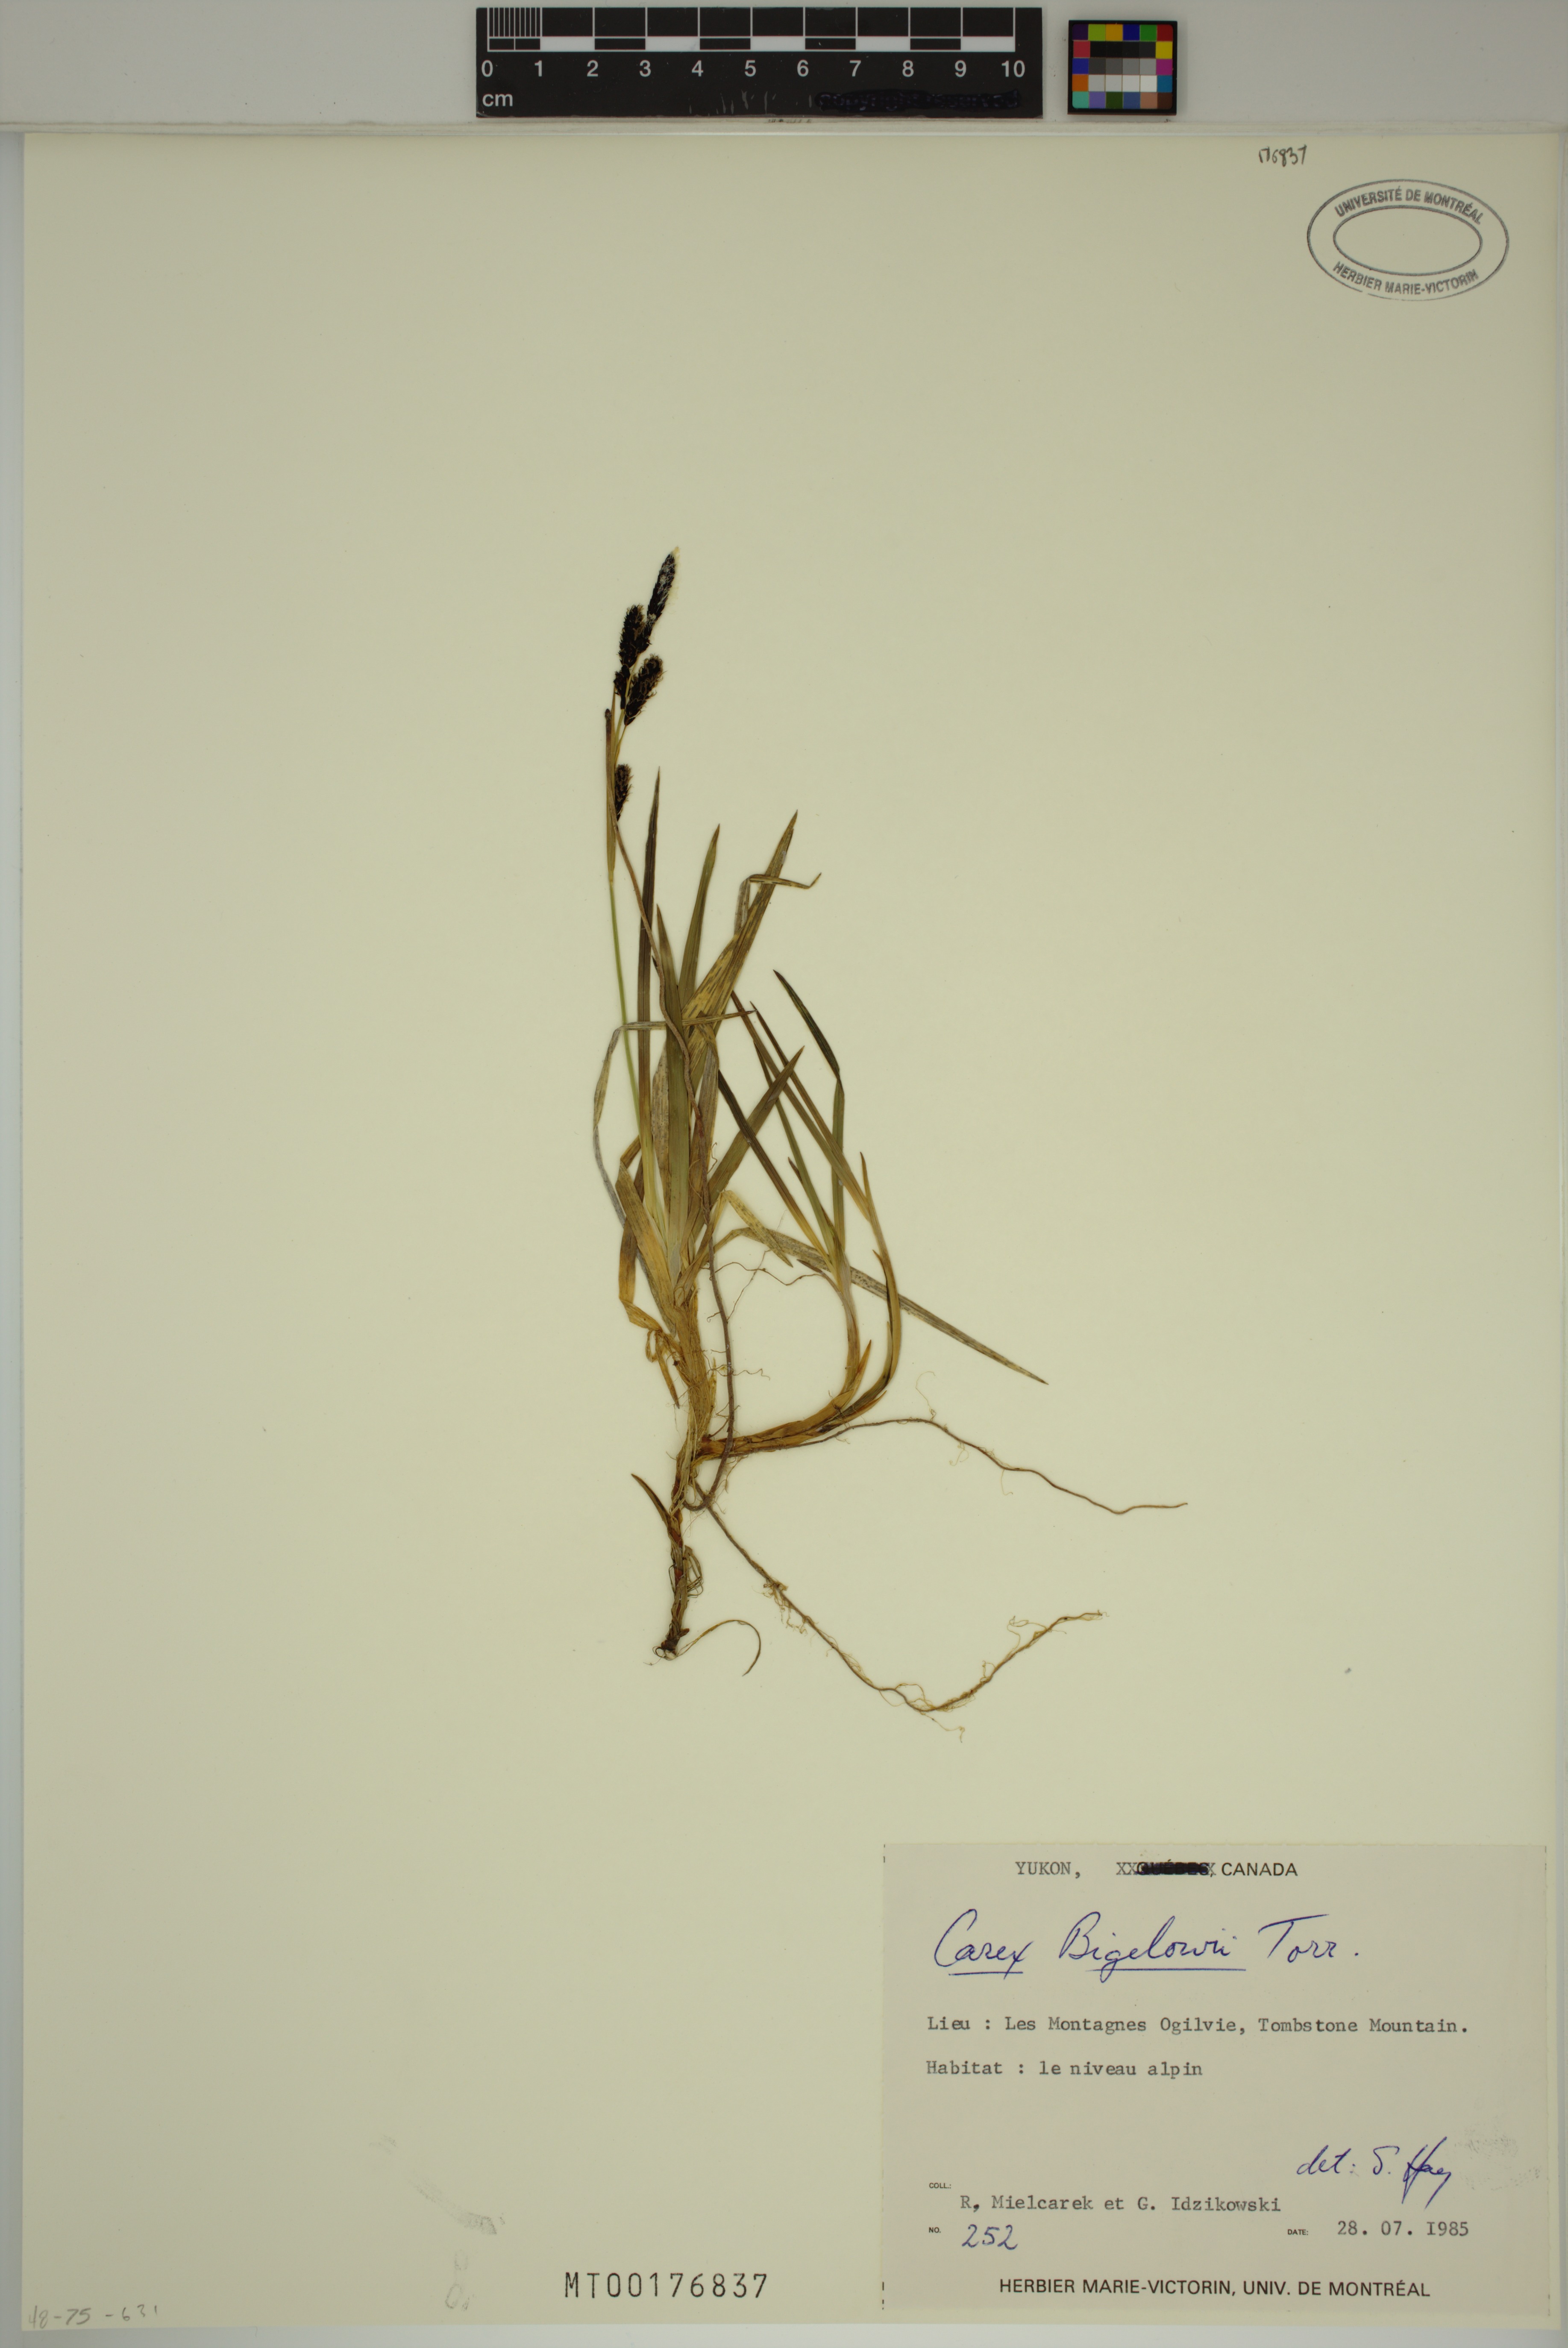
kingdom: Plantae
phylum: Tracheophyta
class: Liliopsida
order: Poales
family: Cyperaceae
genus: Carex
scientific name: Carex bigelowii
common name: Stiff sedge
